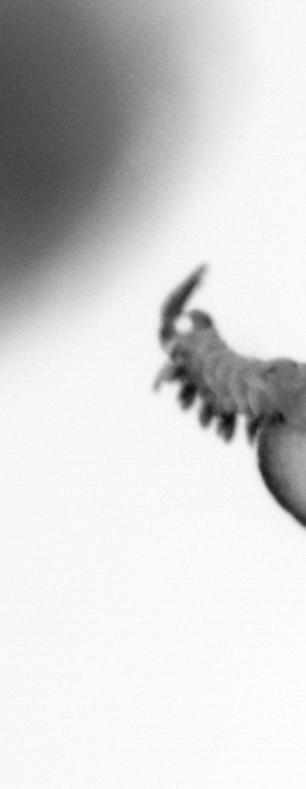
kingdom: Animalia
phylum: Annelida
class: Polychaeta
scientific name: Polychaeta
